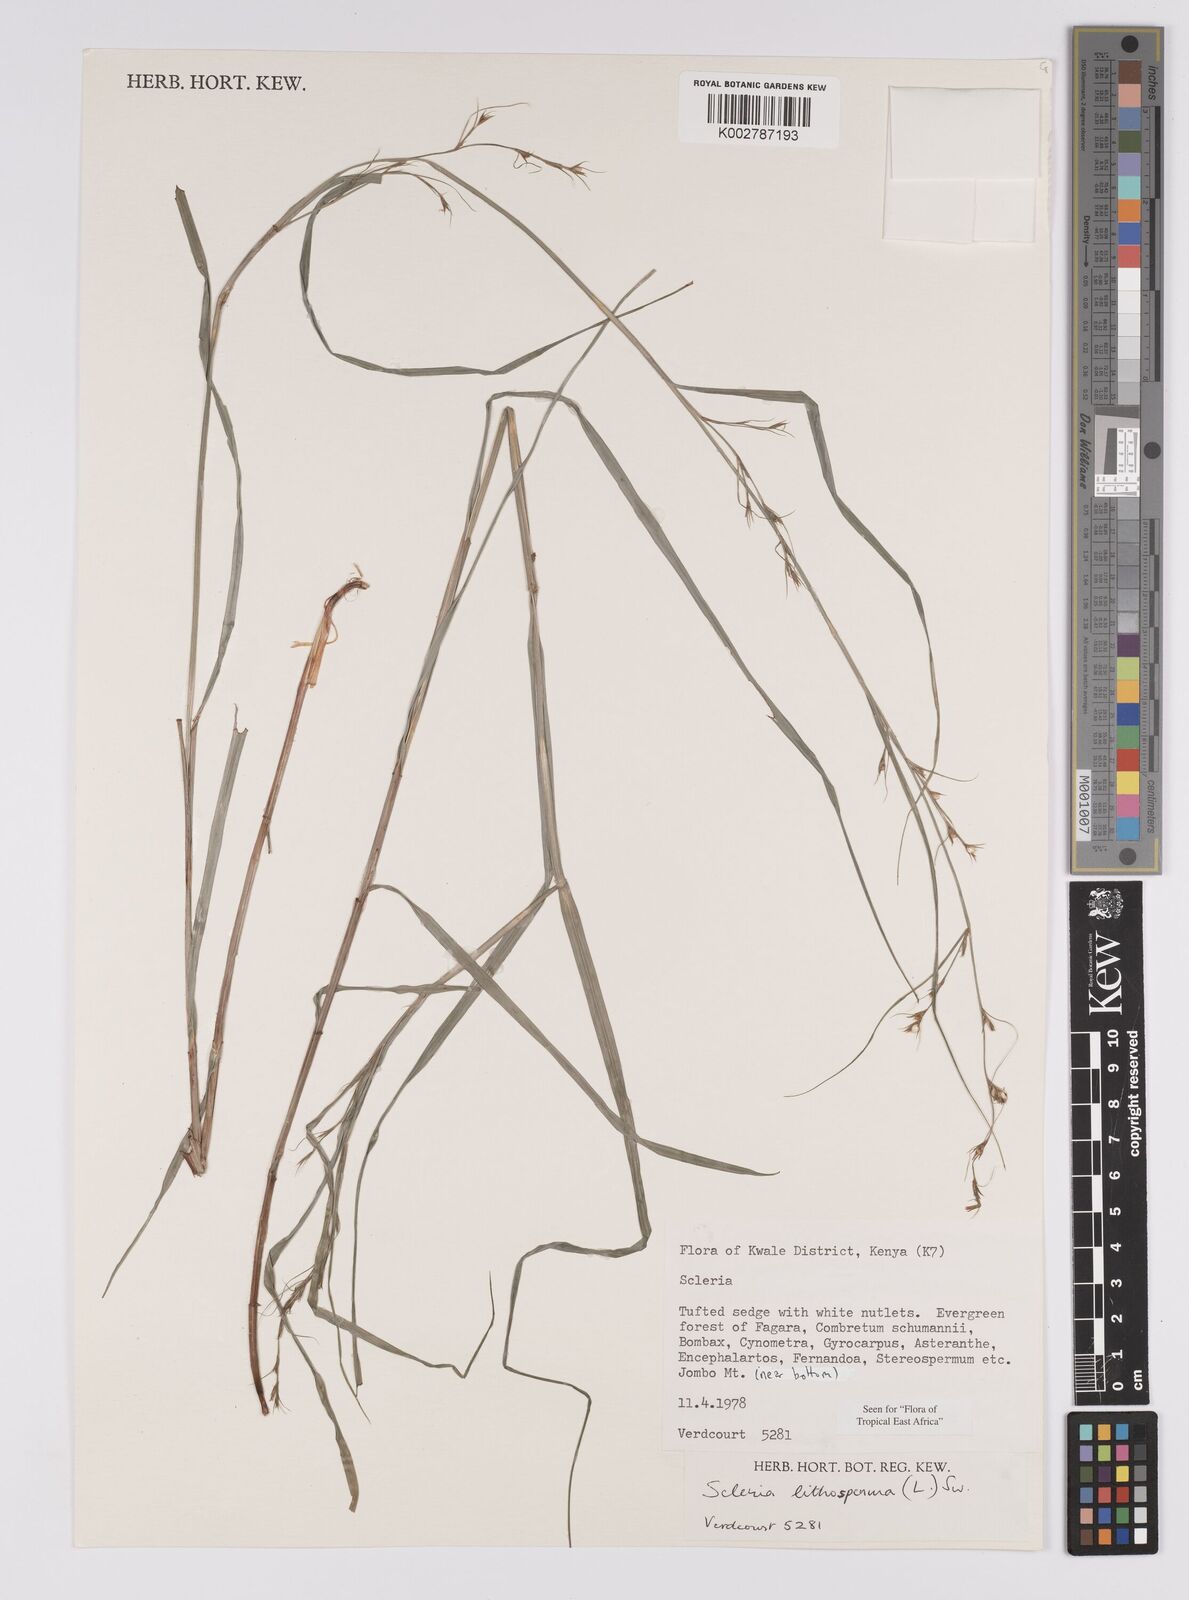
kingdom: Plantae
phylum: Tracheophyta
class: Liliopsida
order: Poales
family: Cyperaceae
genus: Scleria
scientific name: Scleria lithosperma
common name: Florida keys nut-rush
